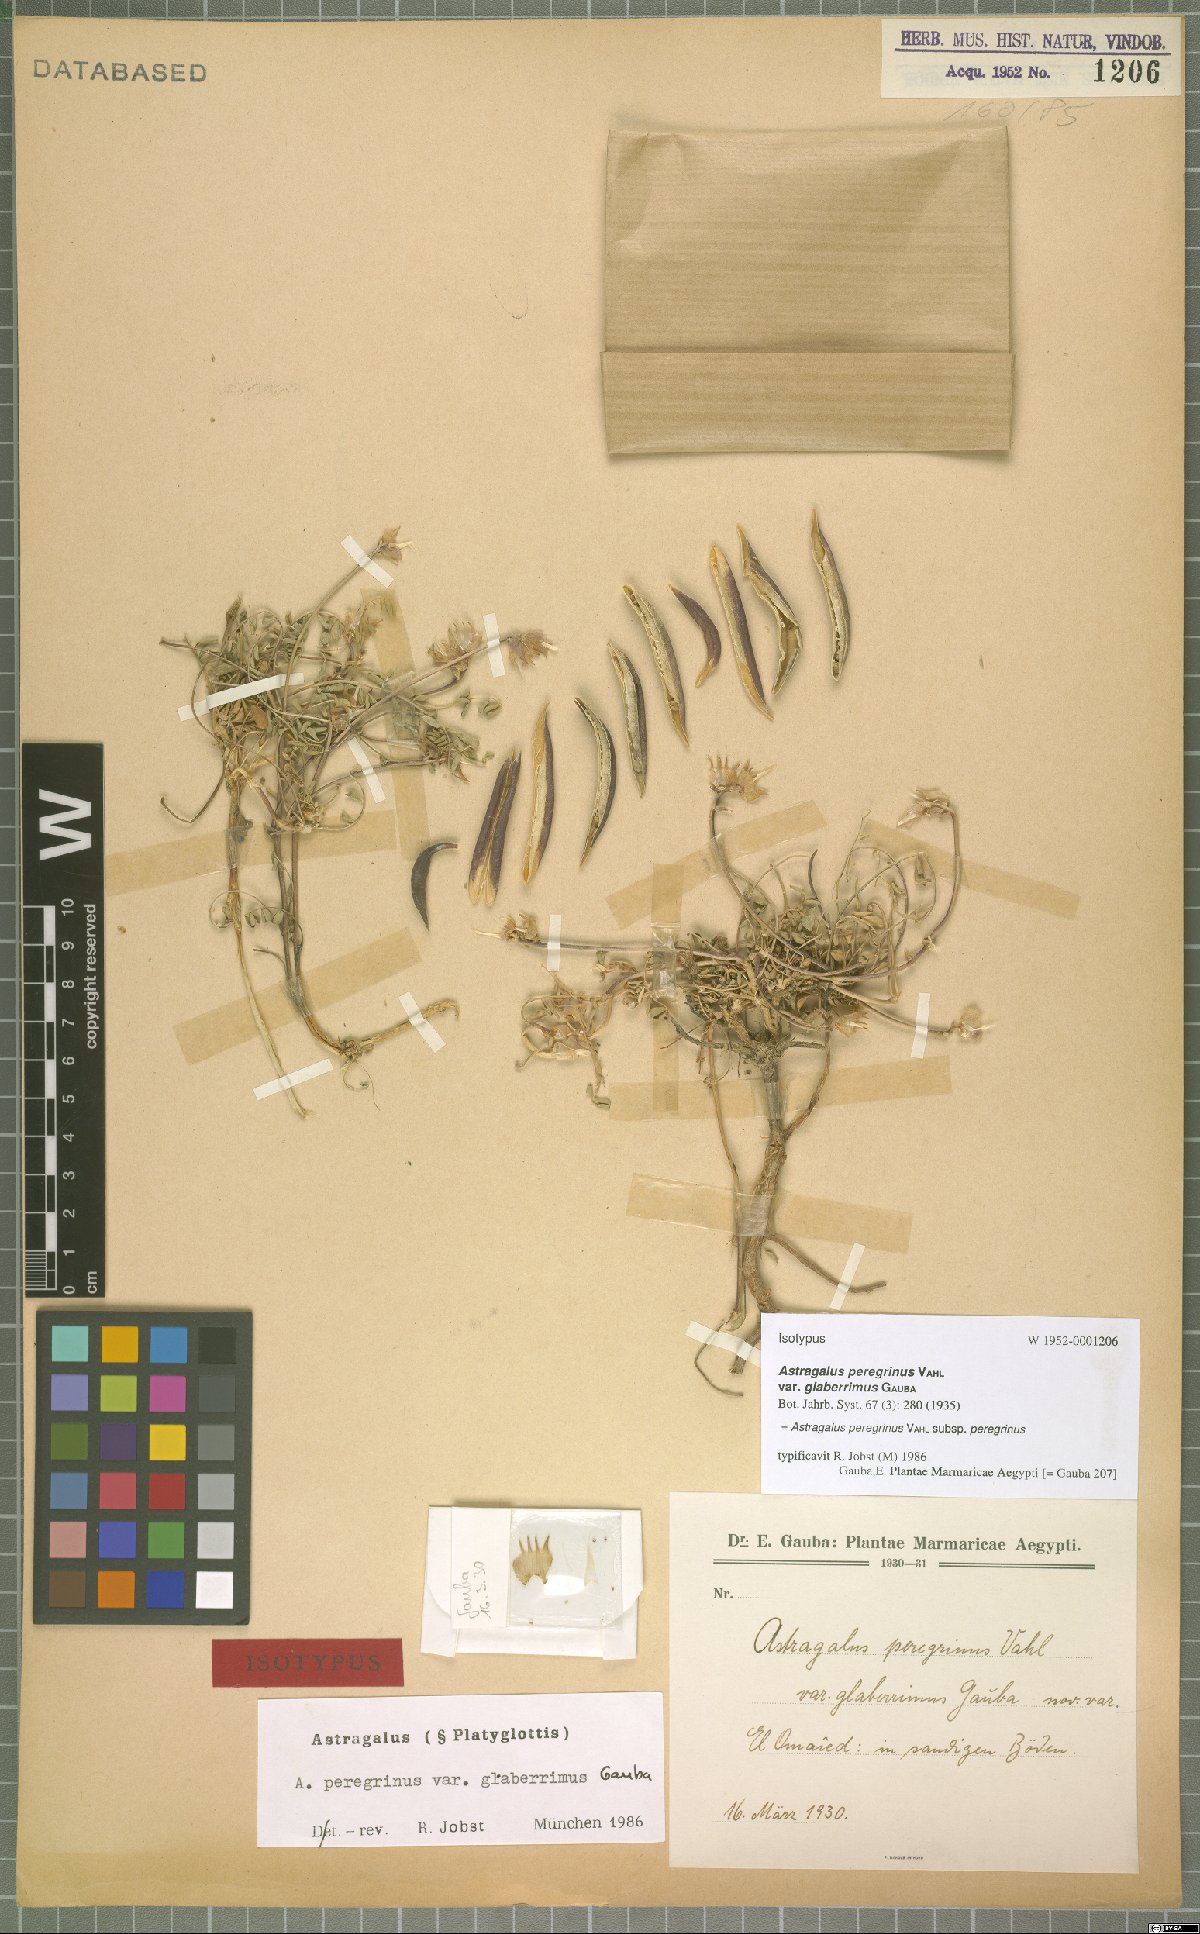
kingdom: Plantae
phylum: Tracheophyta
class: Magnoliopsida
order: Fabales
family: Fabaceae
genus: Astragalus
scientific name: Astragalus peregrinus
